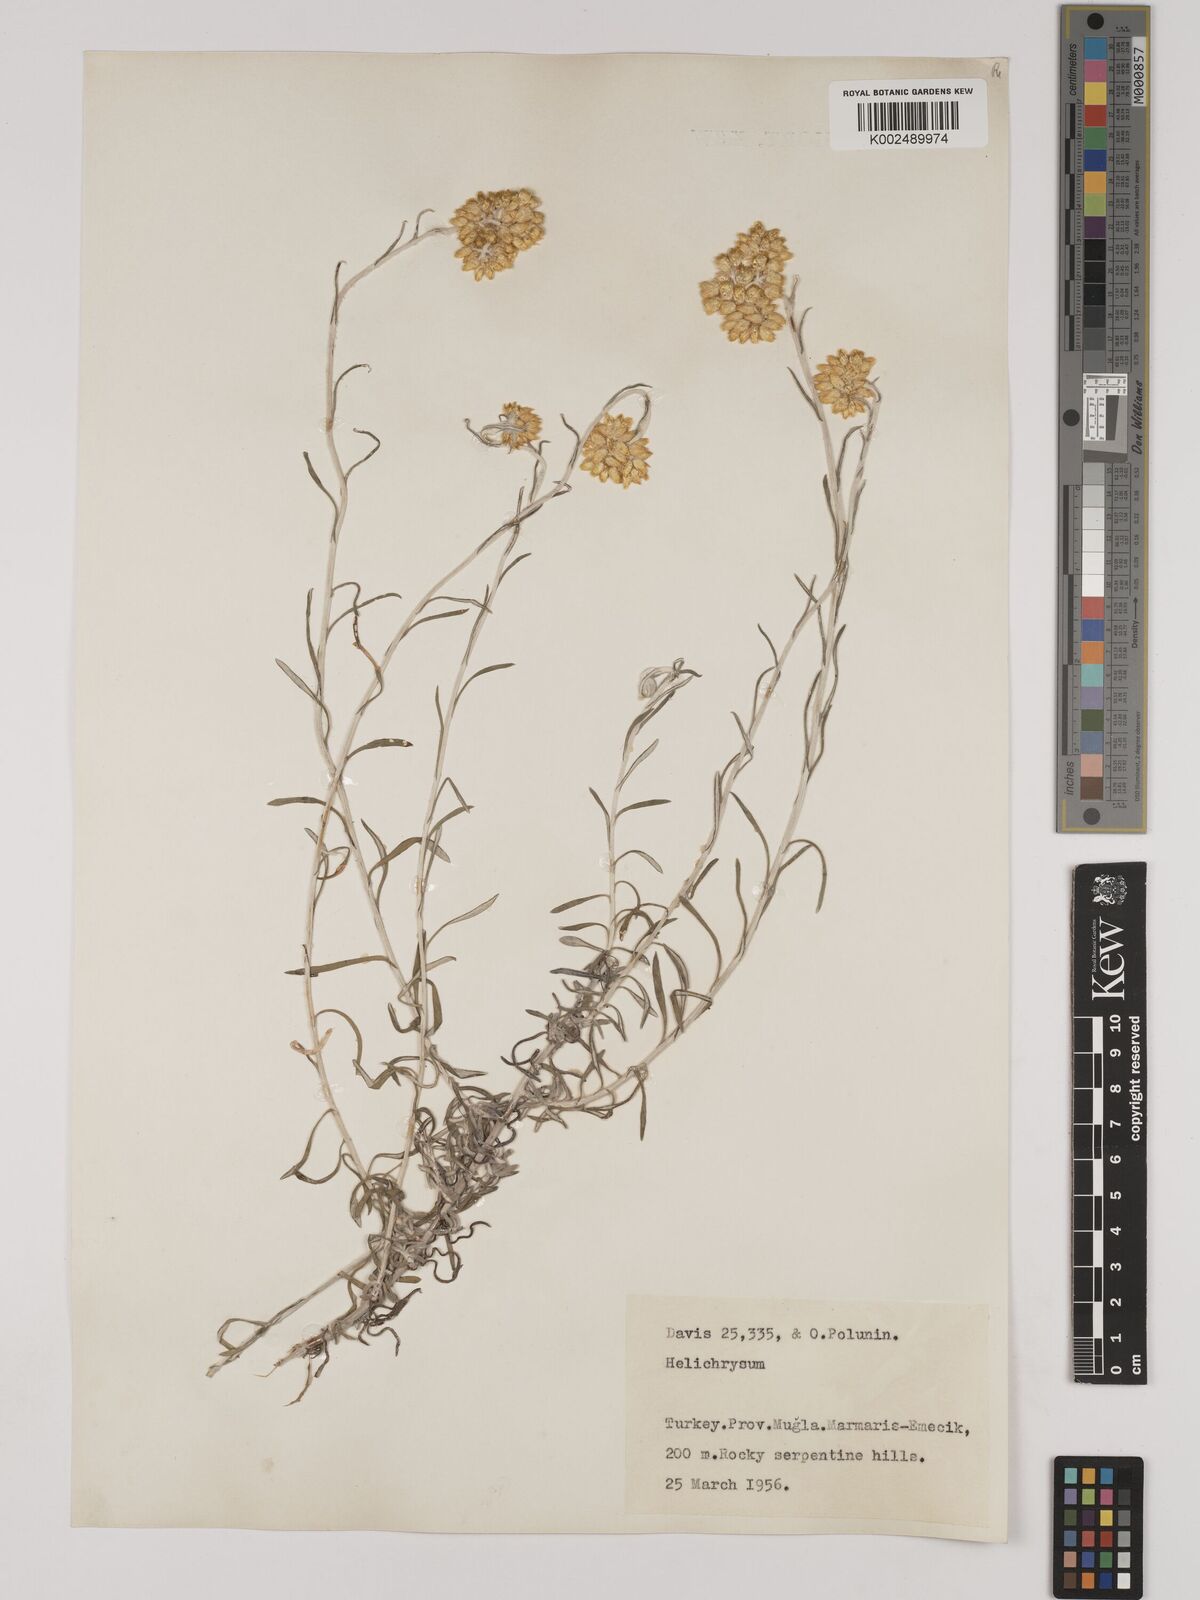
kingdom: Plantae
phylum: Tracheophyta
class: Magnoliopsida
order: Asterales
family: Asteraceae
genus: Helichrysum
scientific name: Helichrysum stoechas
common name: Goldilocks
